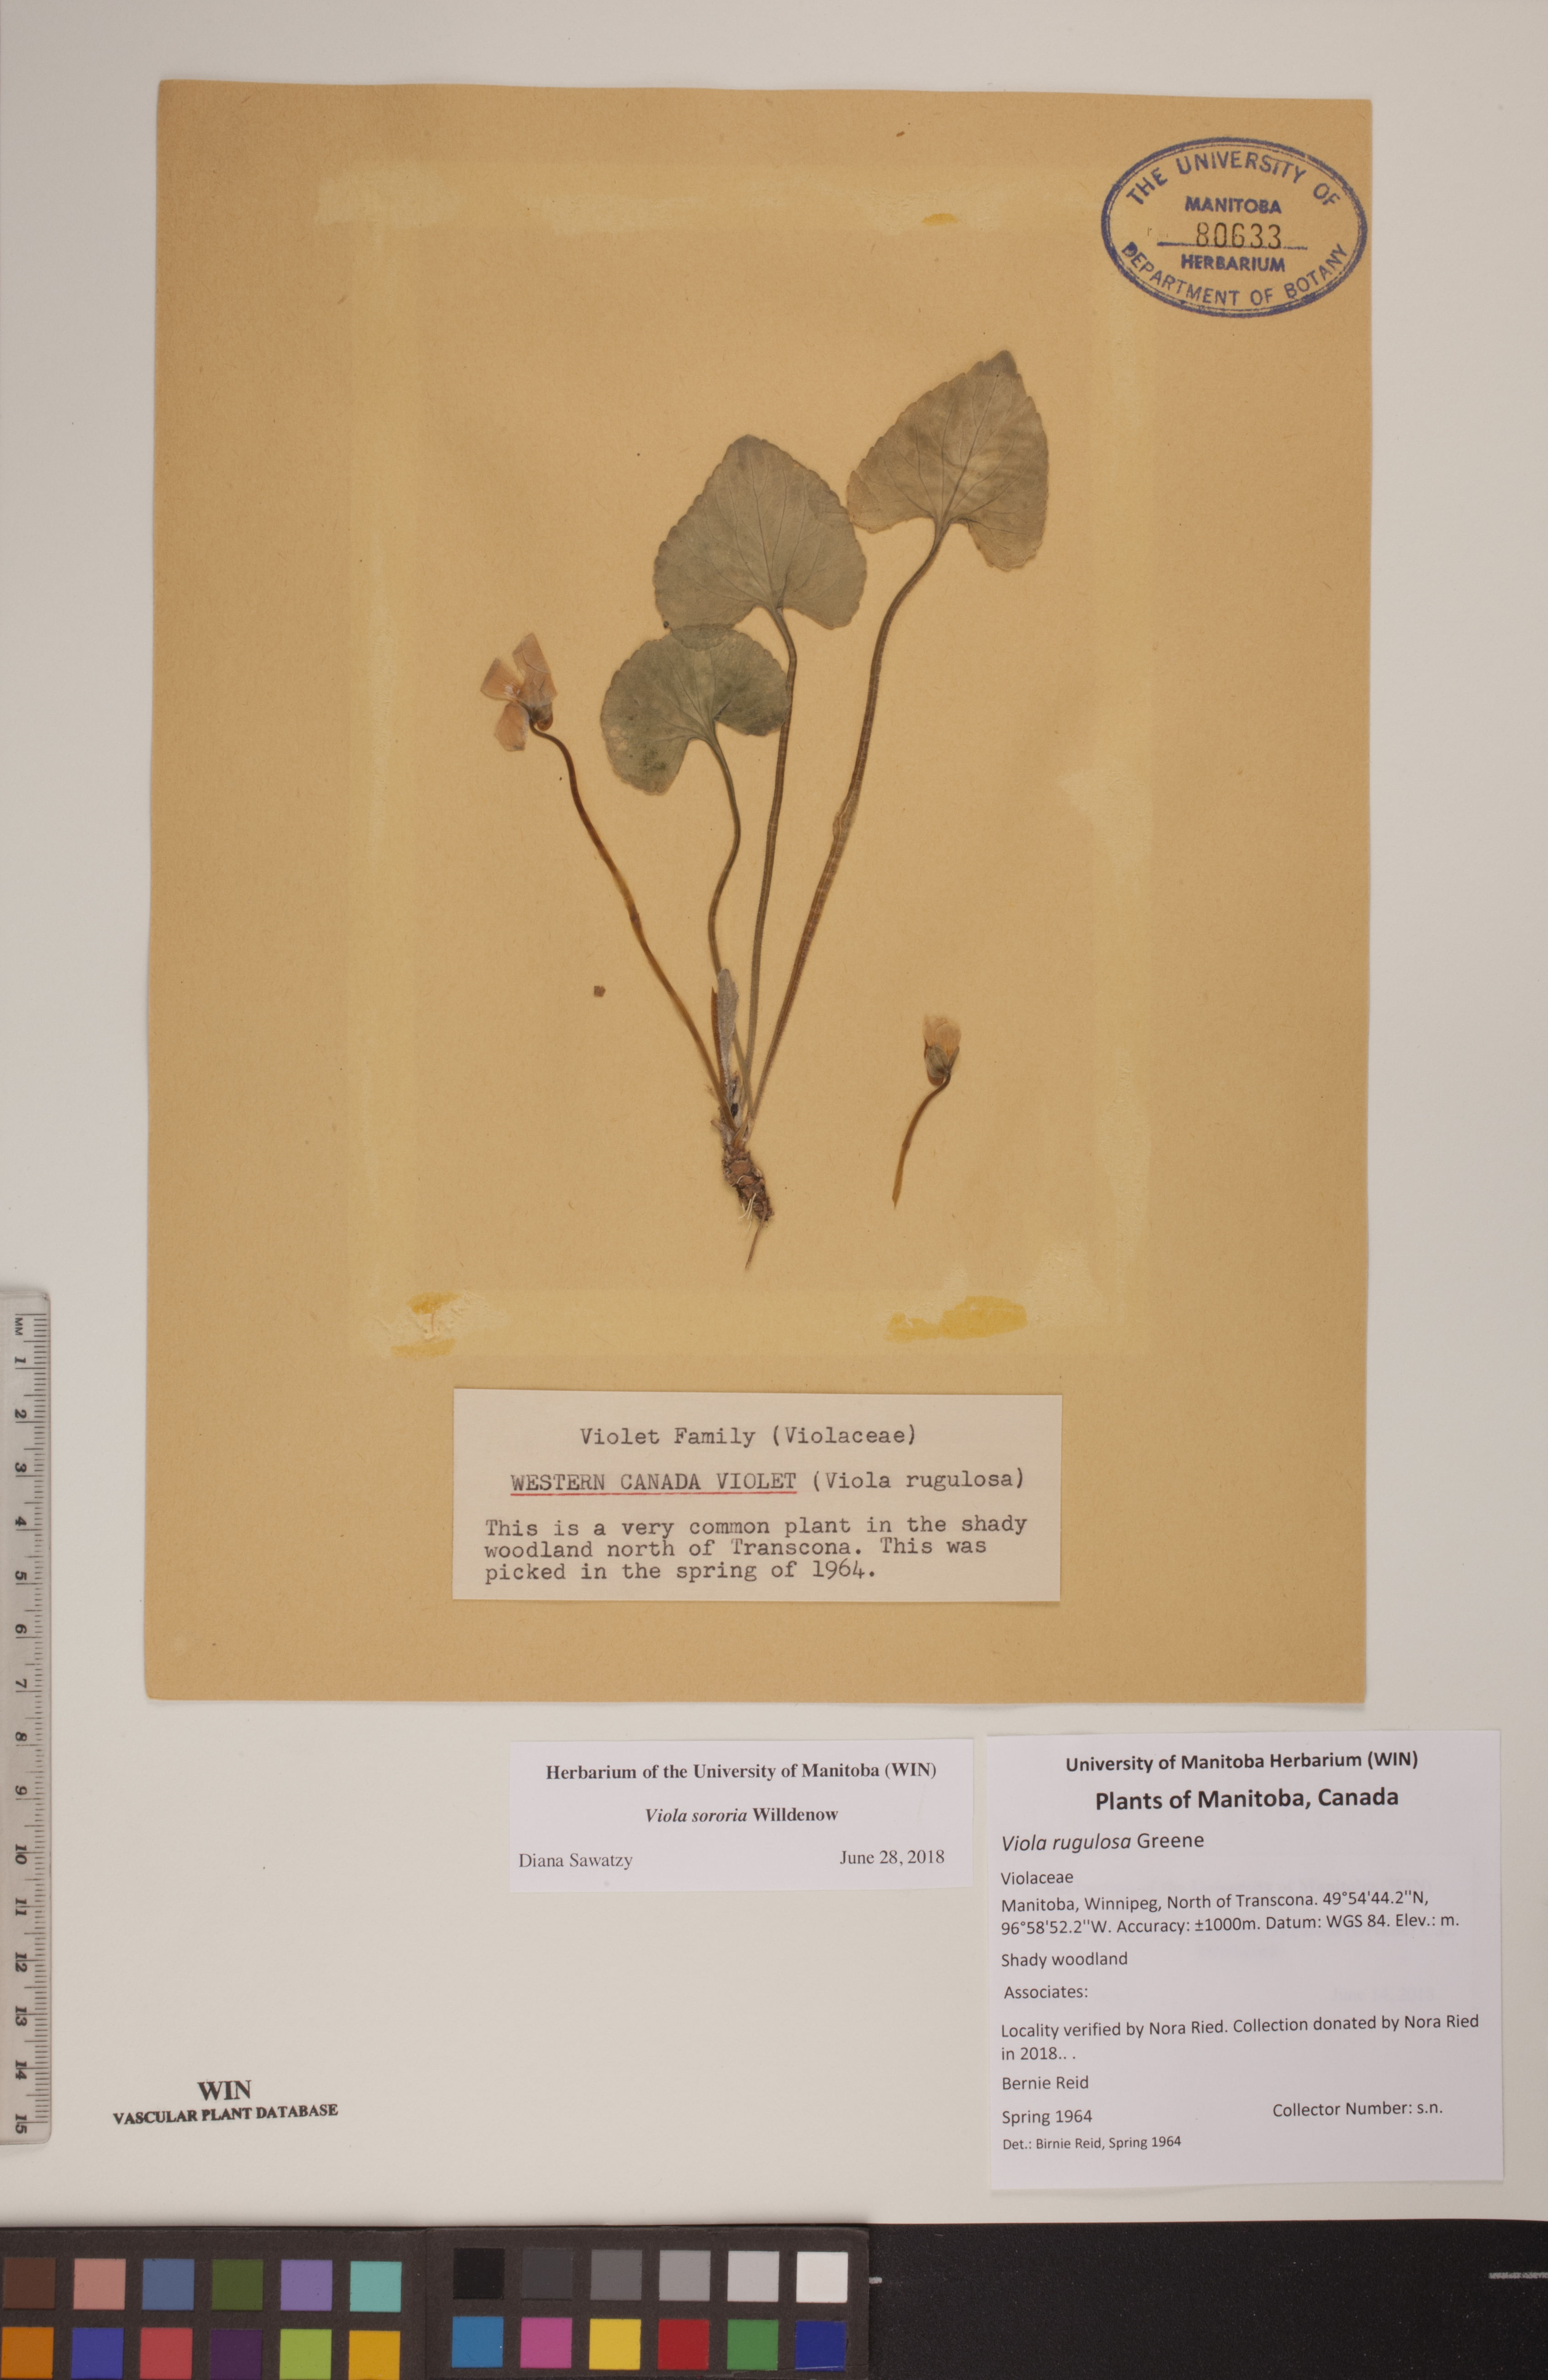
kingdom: Plantae
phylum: Tracheophyta
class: Magnoliopsida
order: Malpighiales
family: Violaceae
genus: Viola
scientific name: Viola sororia
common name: Dooryard violet
